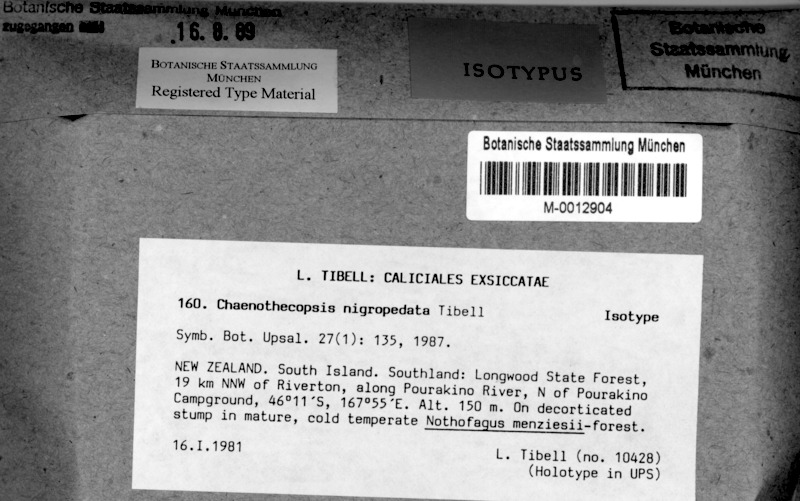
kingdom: Fungi
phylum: Ascomycota
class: Eurotiomycetes
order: Mycocaliciales
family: Mycocaliciaceae
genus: Chaenothecopsis
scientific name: Chaenothecopsis nigropedata
